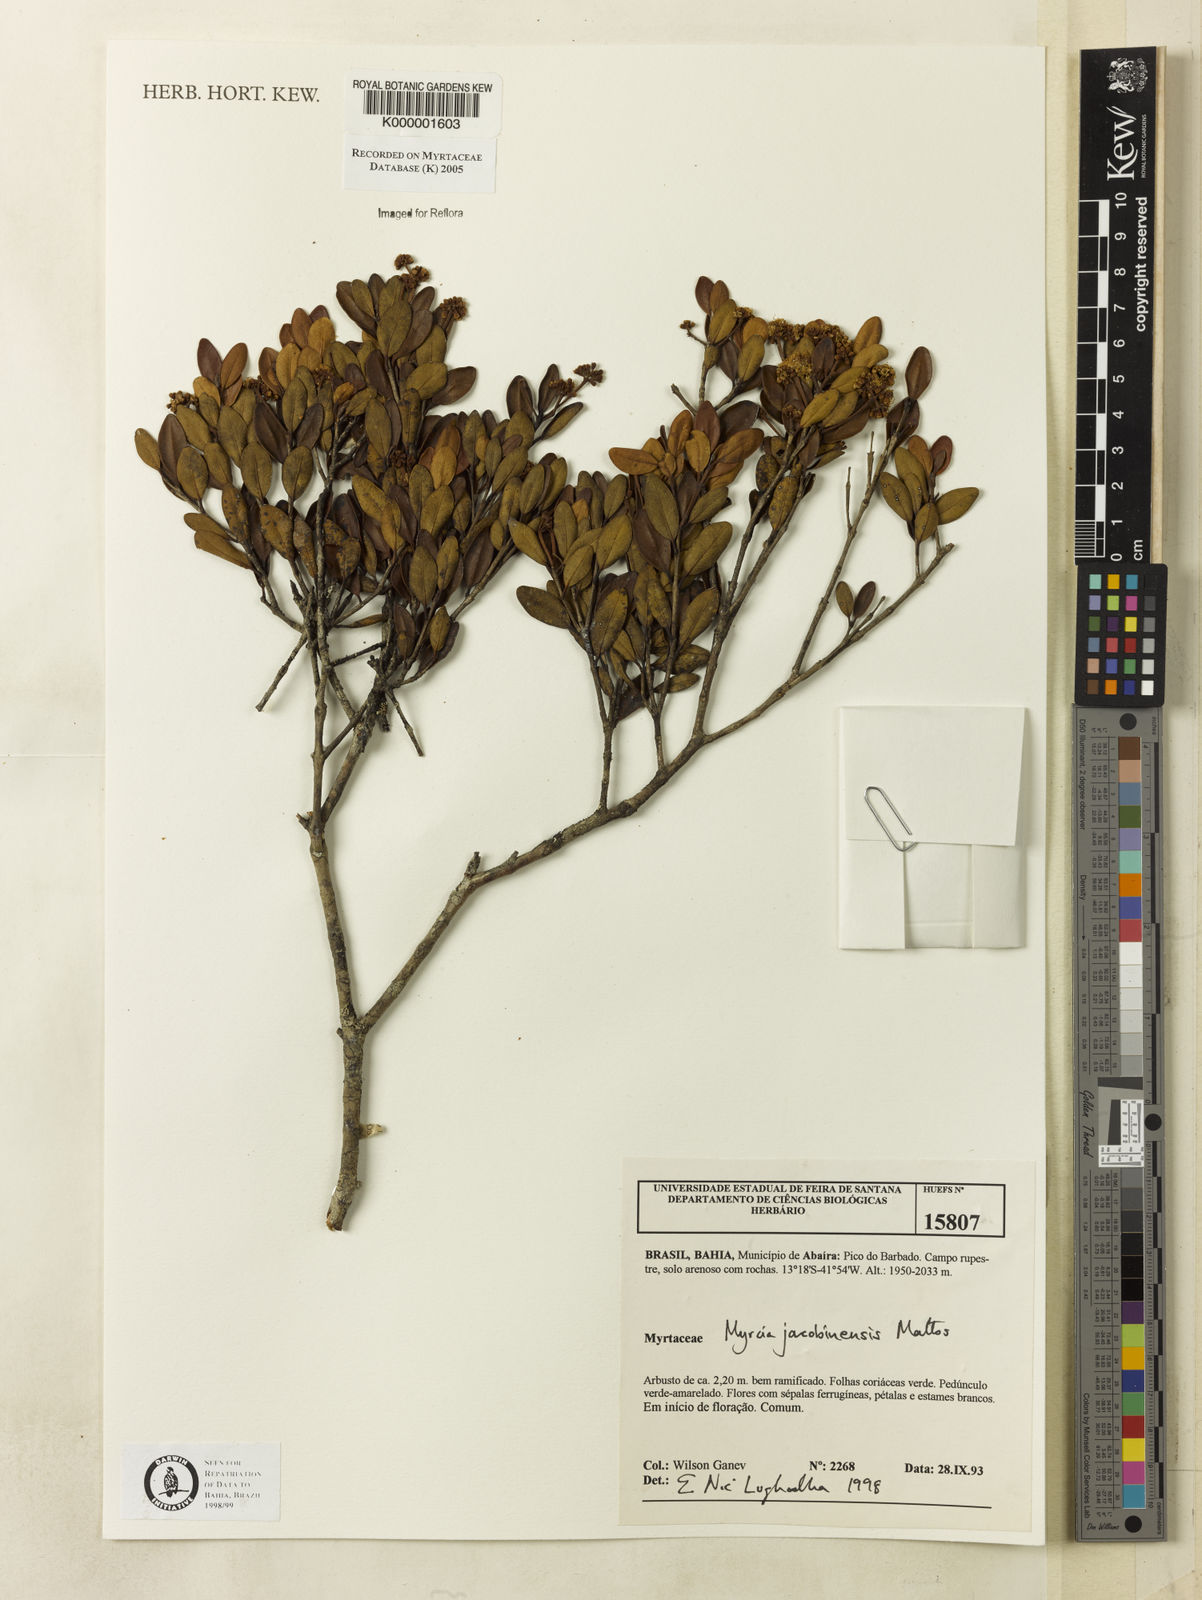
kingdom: Plantae
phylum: Tracheophyta
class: Magnoliopsida
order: Myrtales
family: Myrtaceae
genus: Myrcia
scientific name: Myrcia jacobinensis
